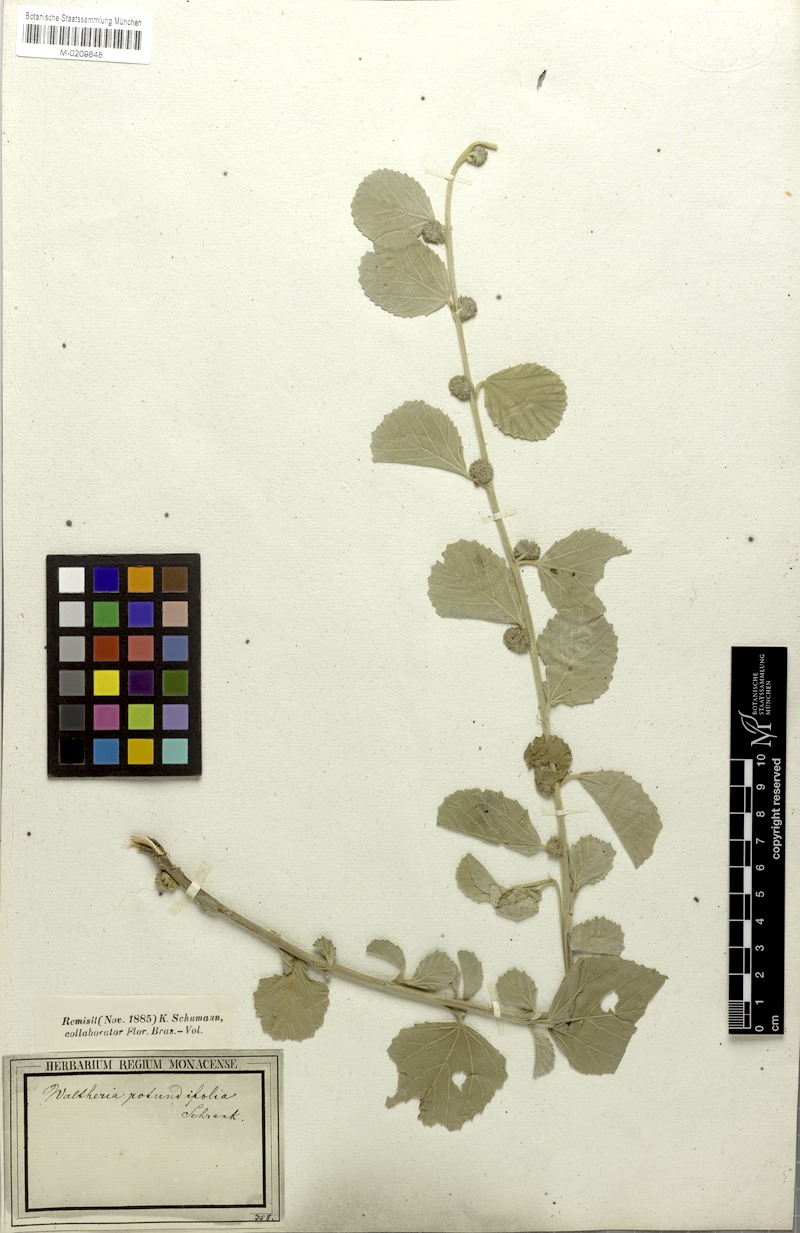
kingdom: Plantae
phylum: Tracheophyta
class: Magnoliopsida
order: Malvales
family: Malvaceae
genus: Waltheria
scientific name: Waltheria rotundifolia
